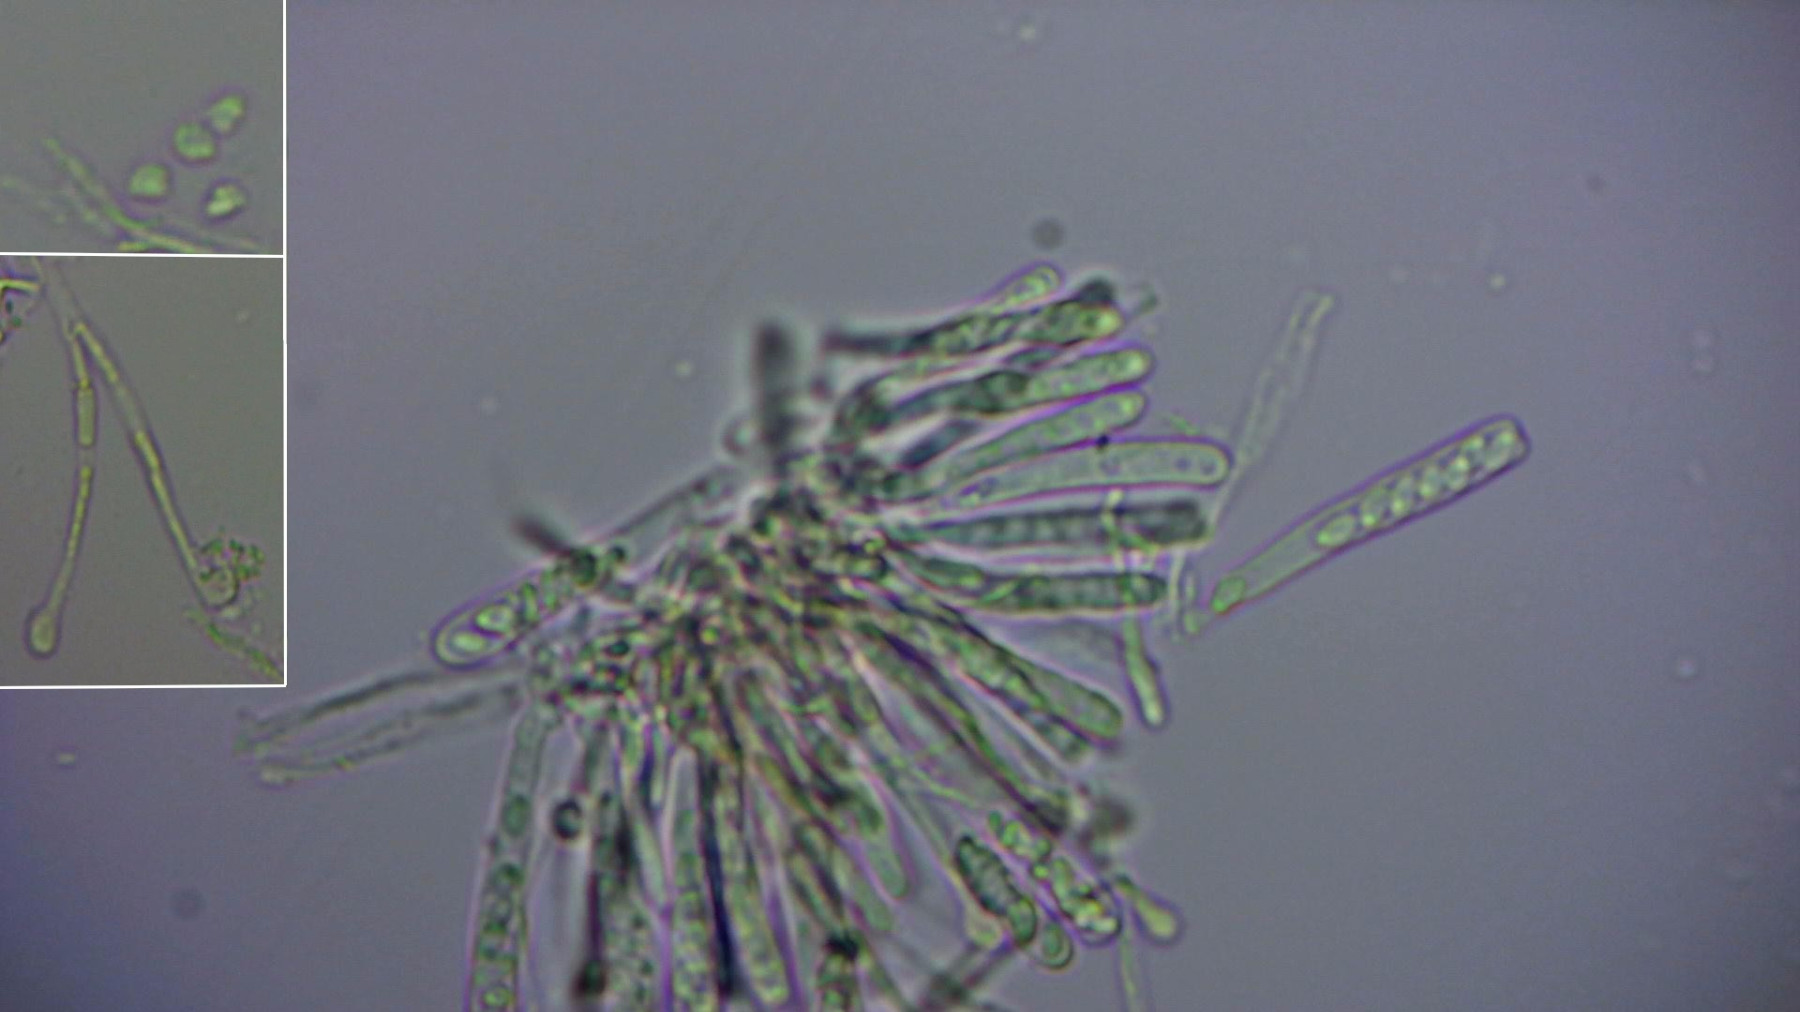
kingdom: Fungi
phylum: Ascomycota
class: Orbiliomycetes
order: Orbiliales
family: Orbiliaceae
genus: Orbilia
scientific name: Orbilia
